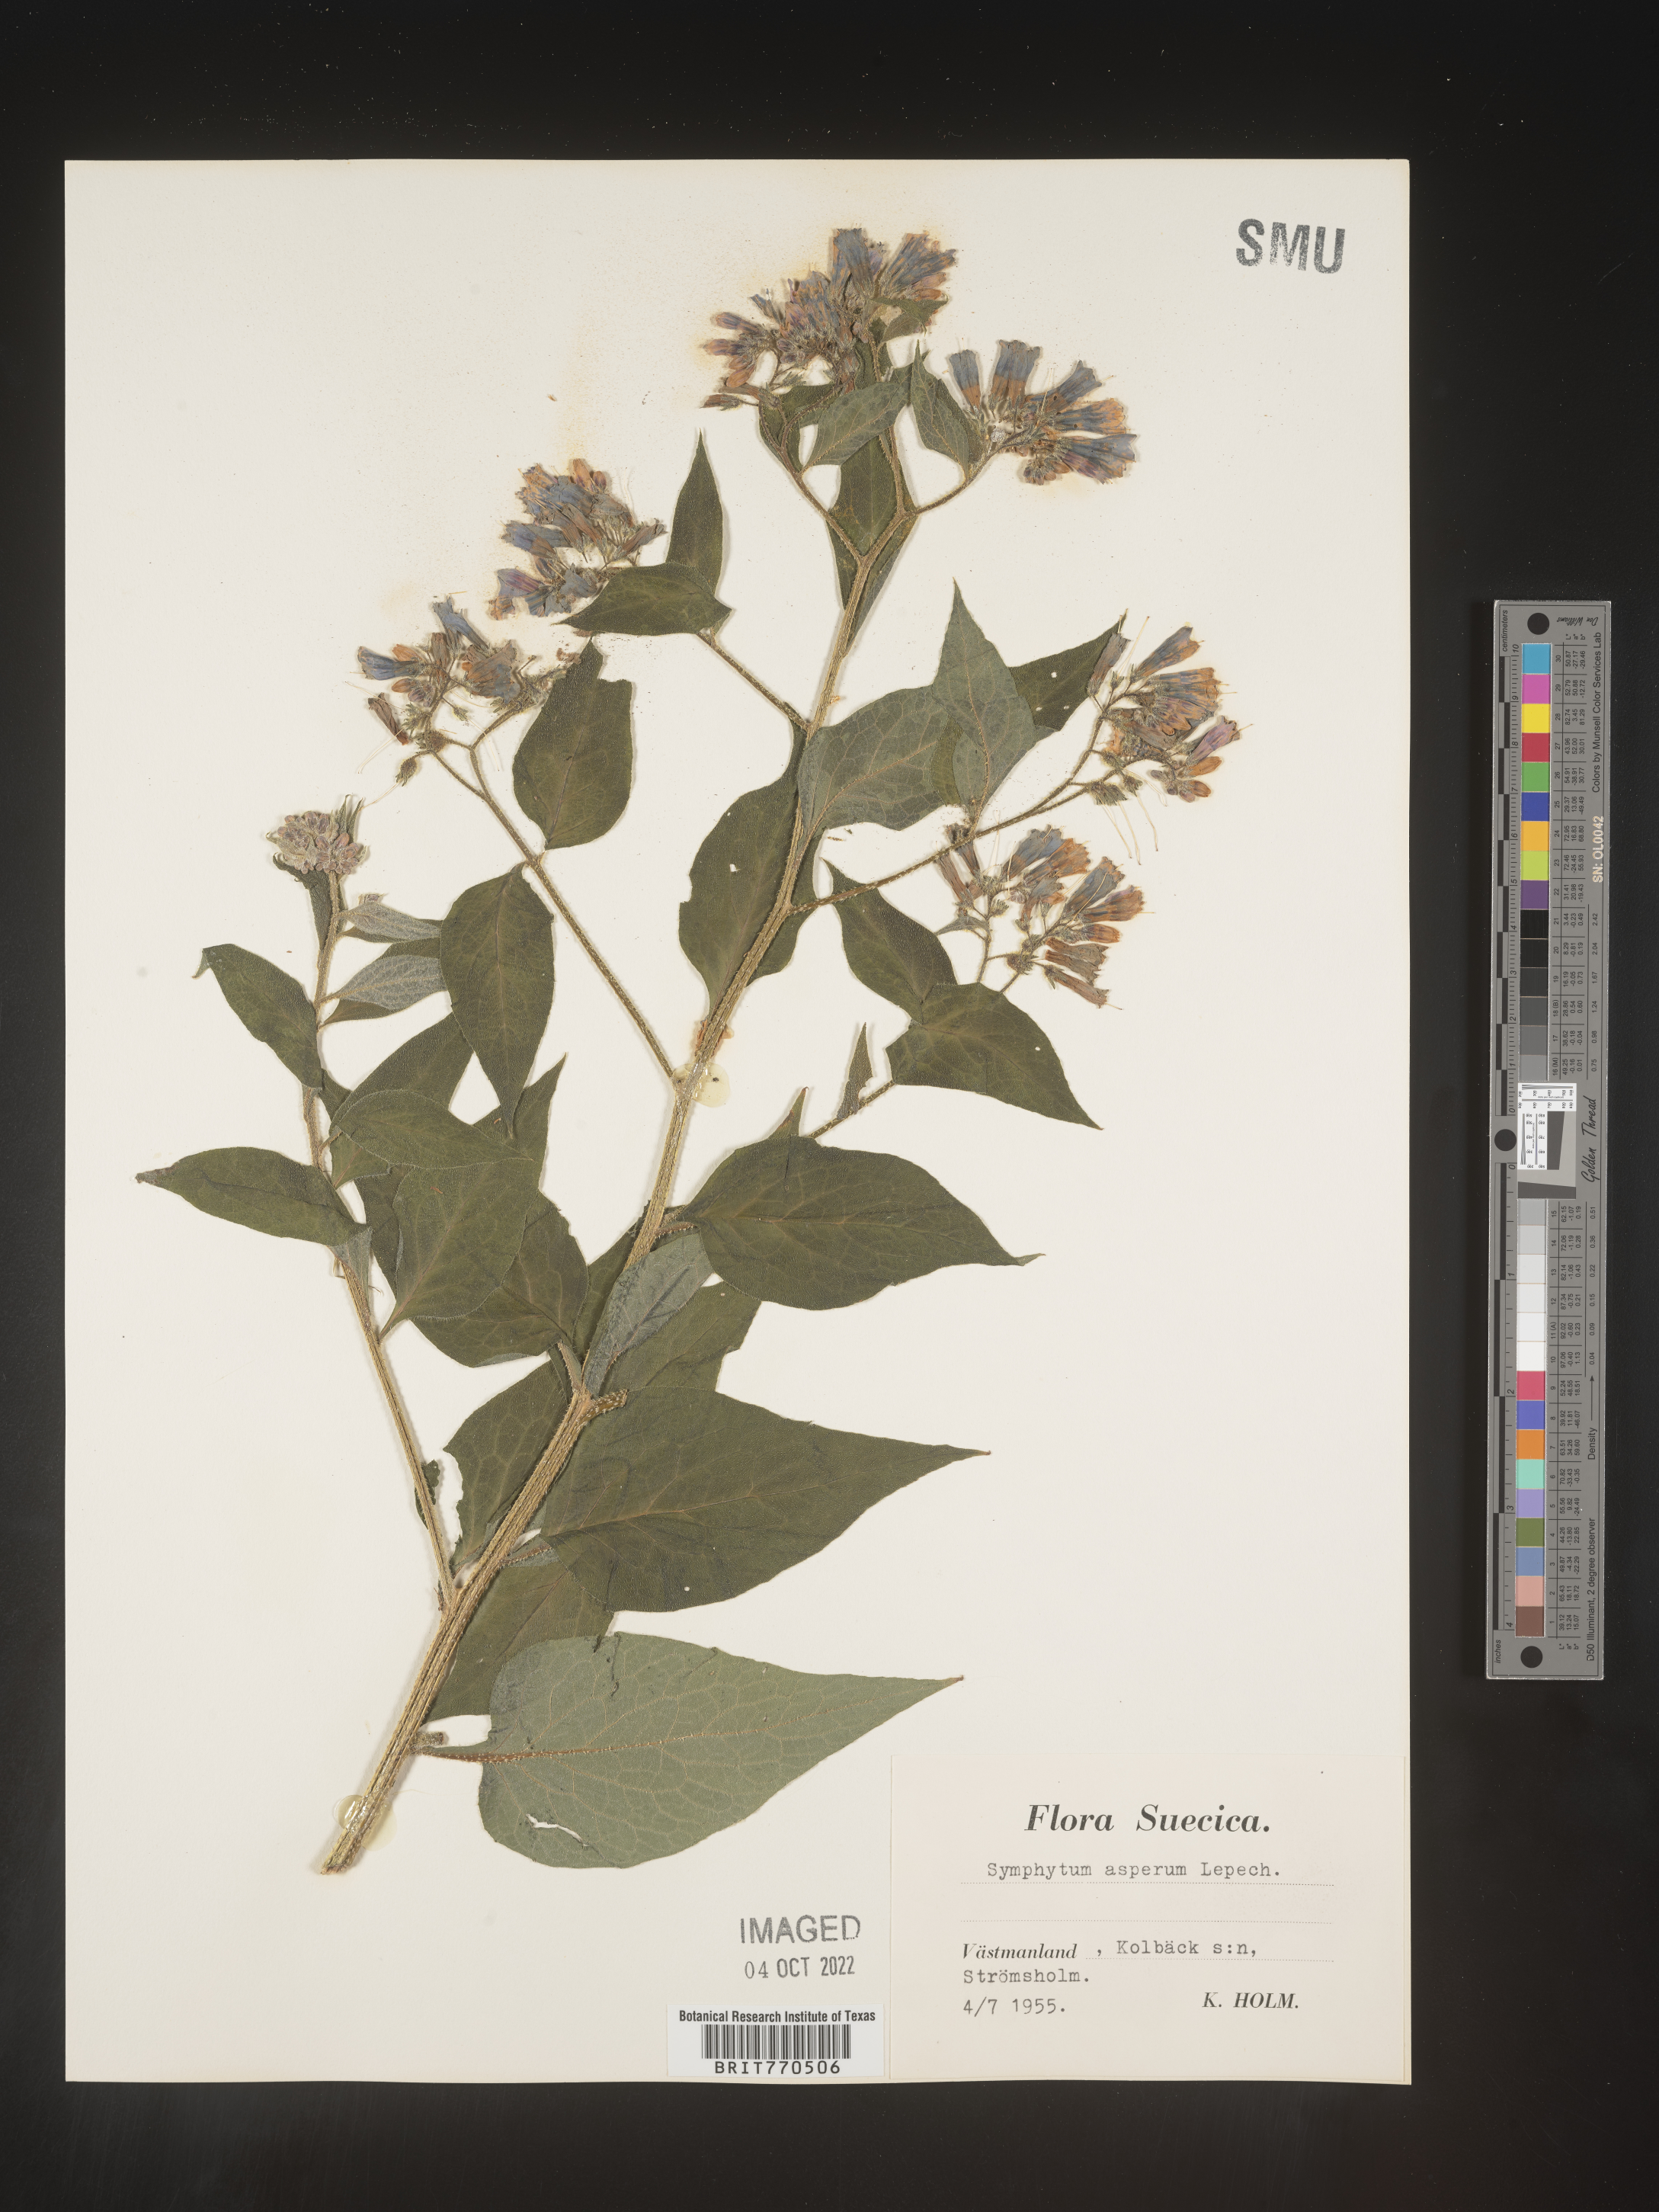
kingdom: Plantae
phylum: Tracheophyta
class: Magnoliopsida
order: Boraginales
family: Boraginaceae
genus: Symphytum
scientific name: Symphytum
